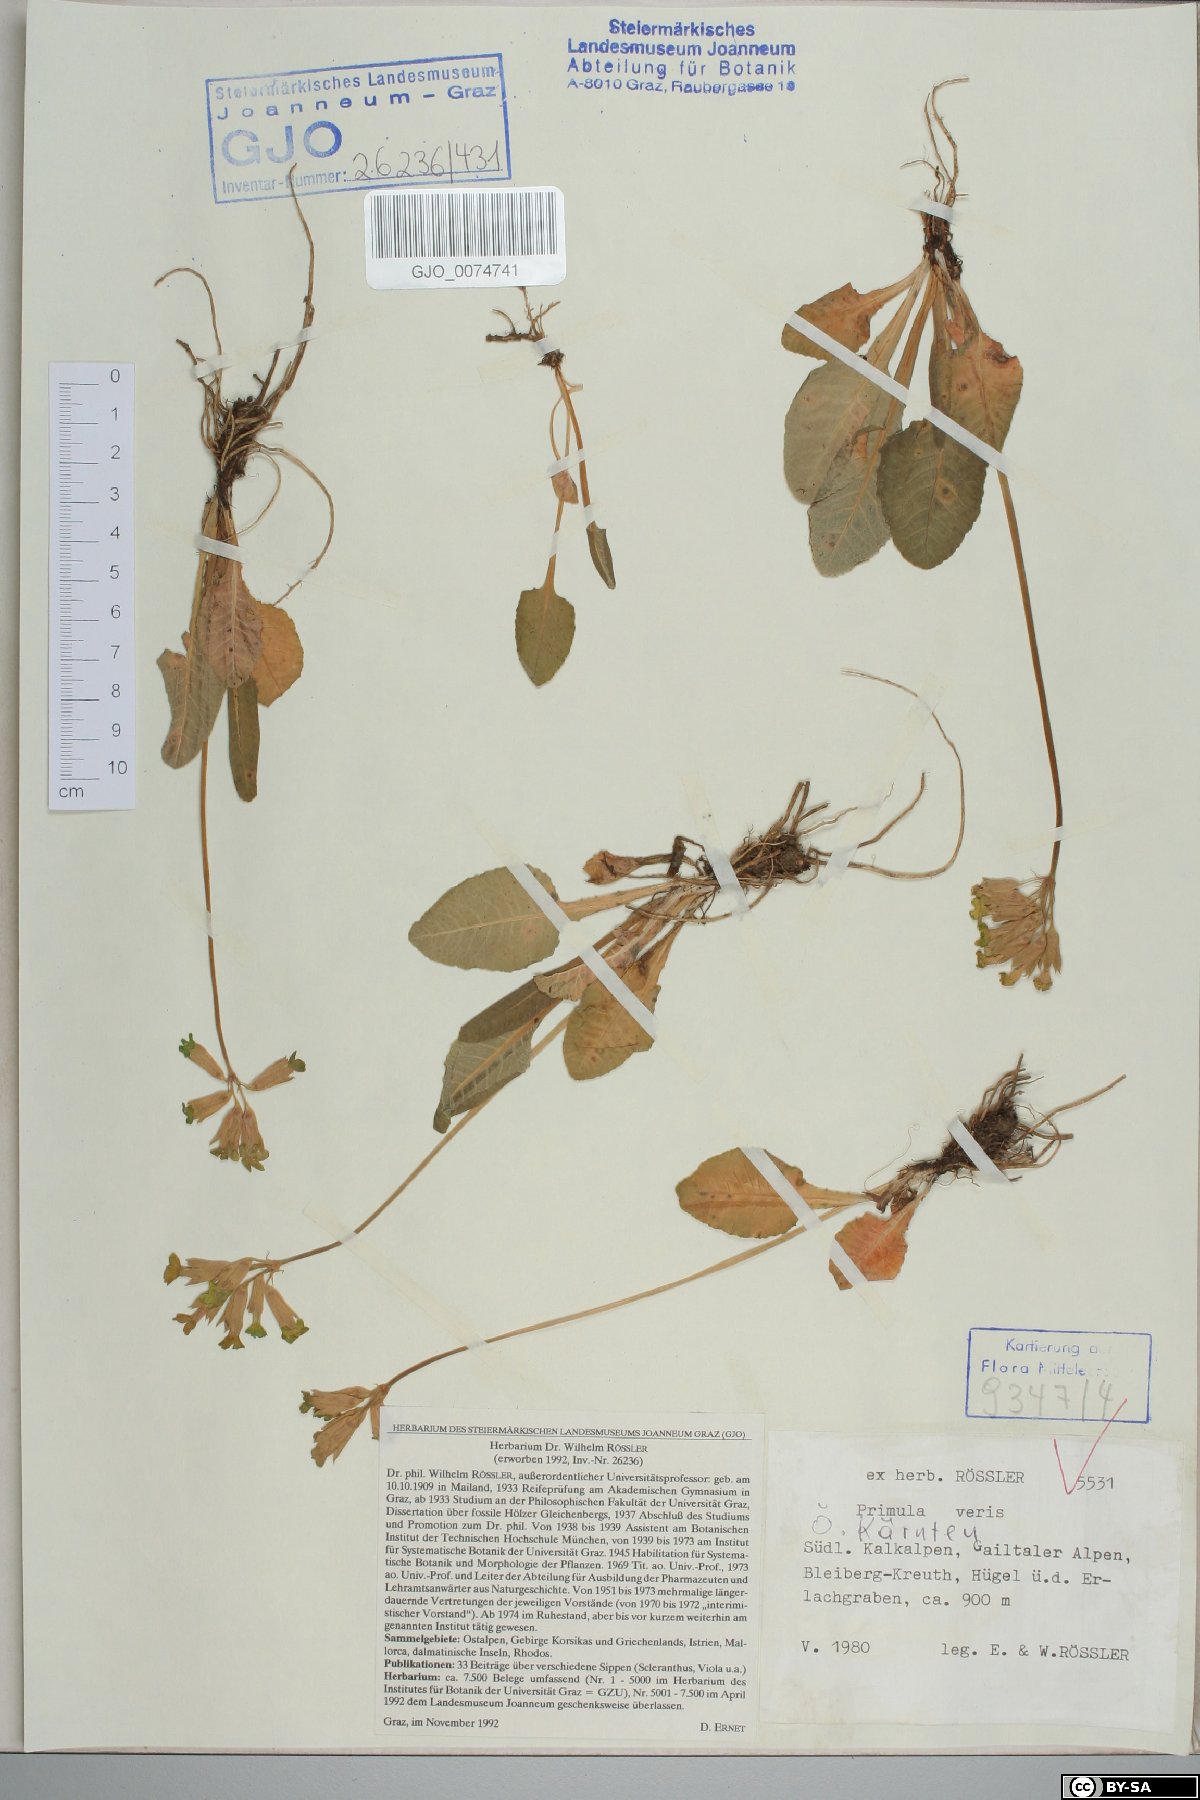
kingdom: Plantae
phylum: Tracheophyta
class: Magnoliopsida
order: Ericales
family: Primulaceae
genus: Primula
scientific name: Primula veris
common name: Cowslip
